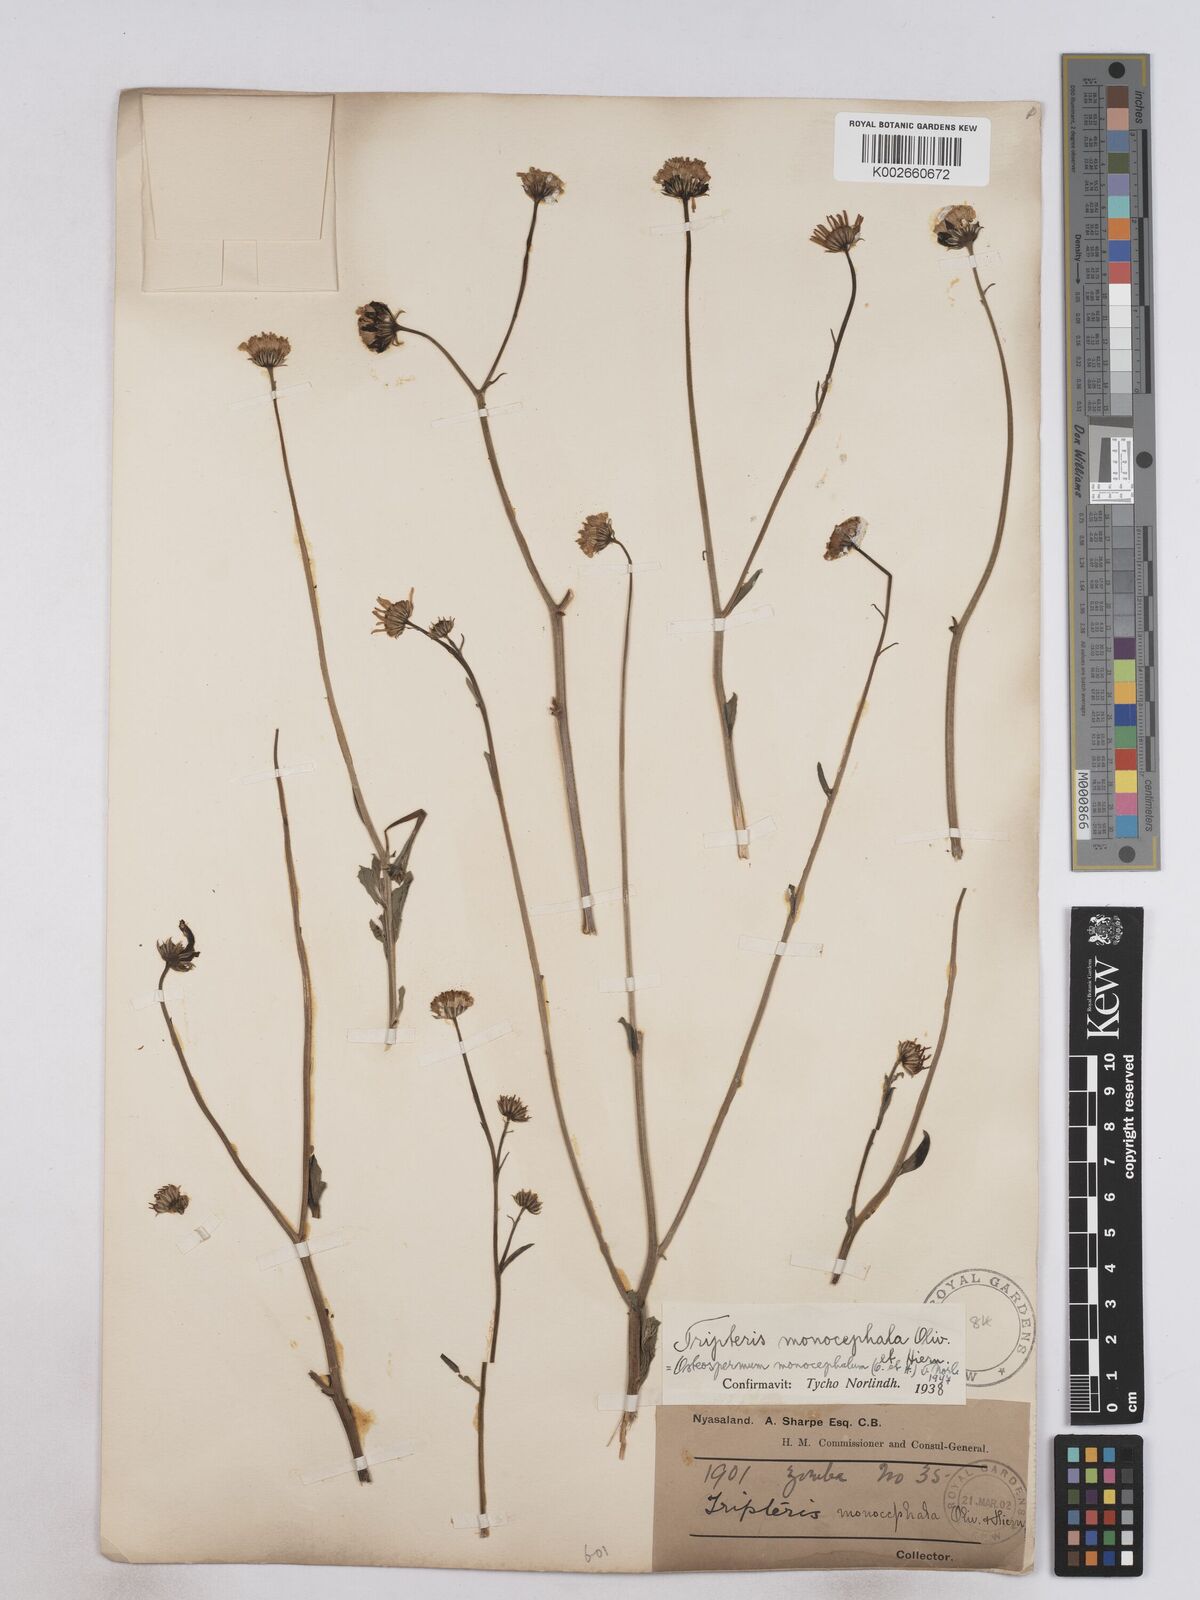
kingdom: Plantae
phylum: Tracheophyta
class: Magnoliopsida
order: Asterales
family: Asteraceae
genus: Osteospermum
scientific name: Osteospermum monocephalum
